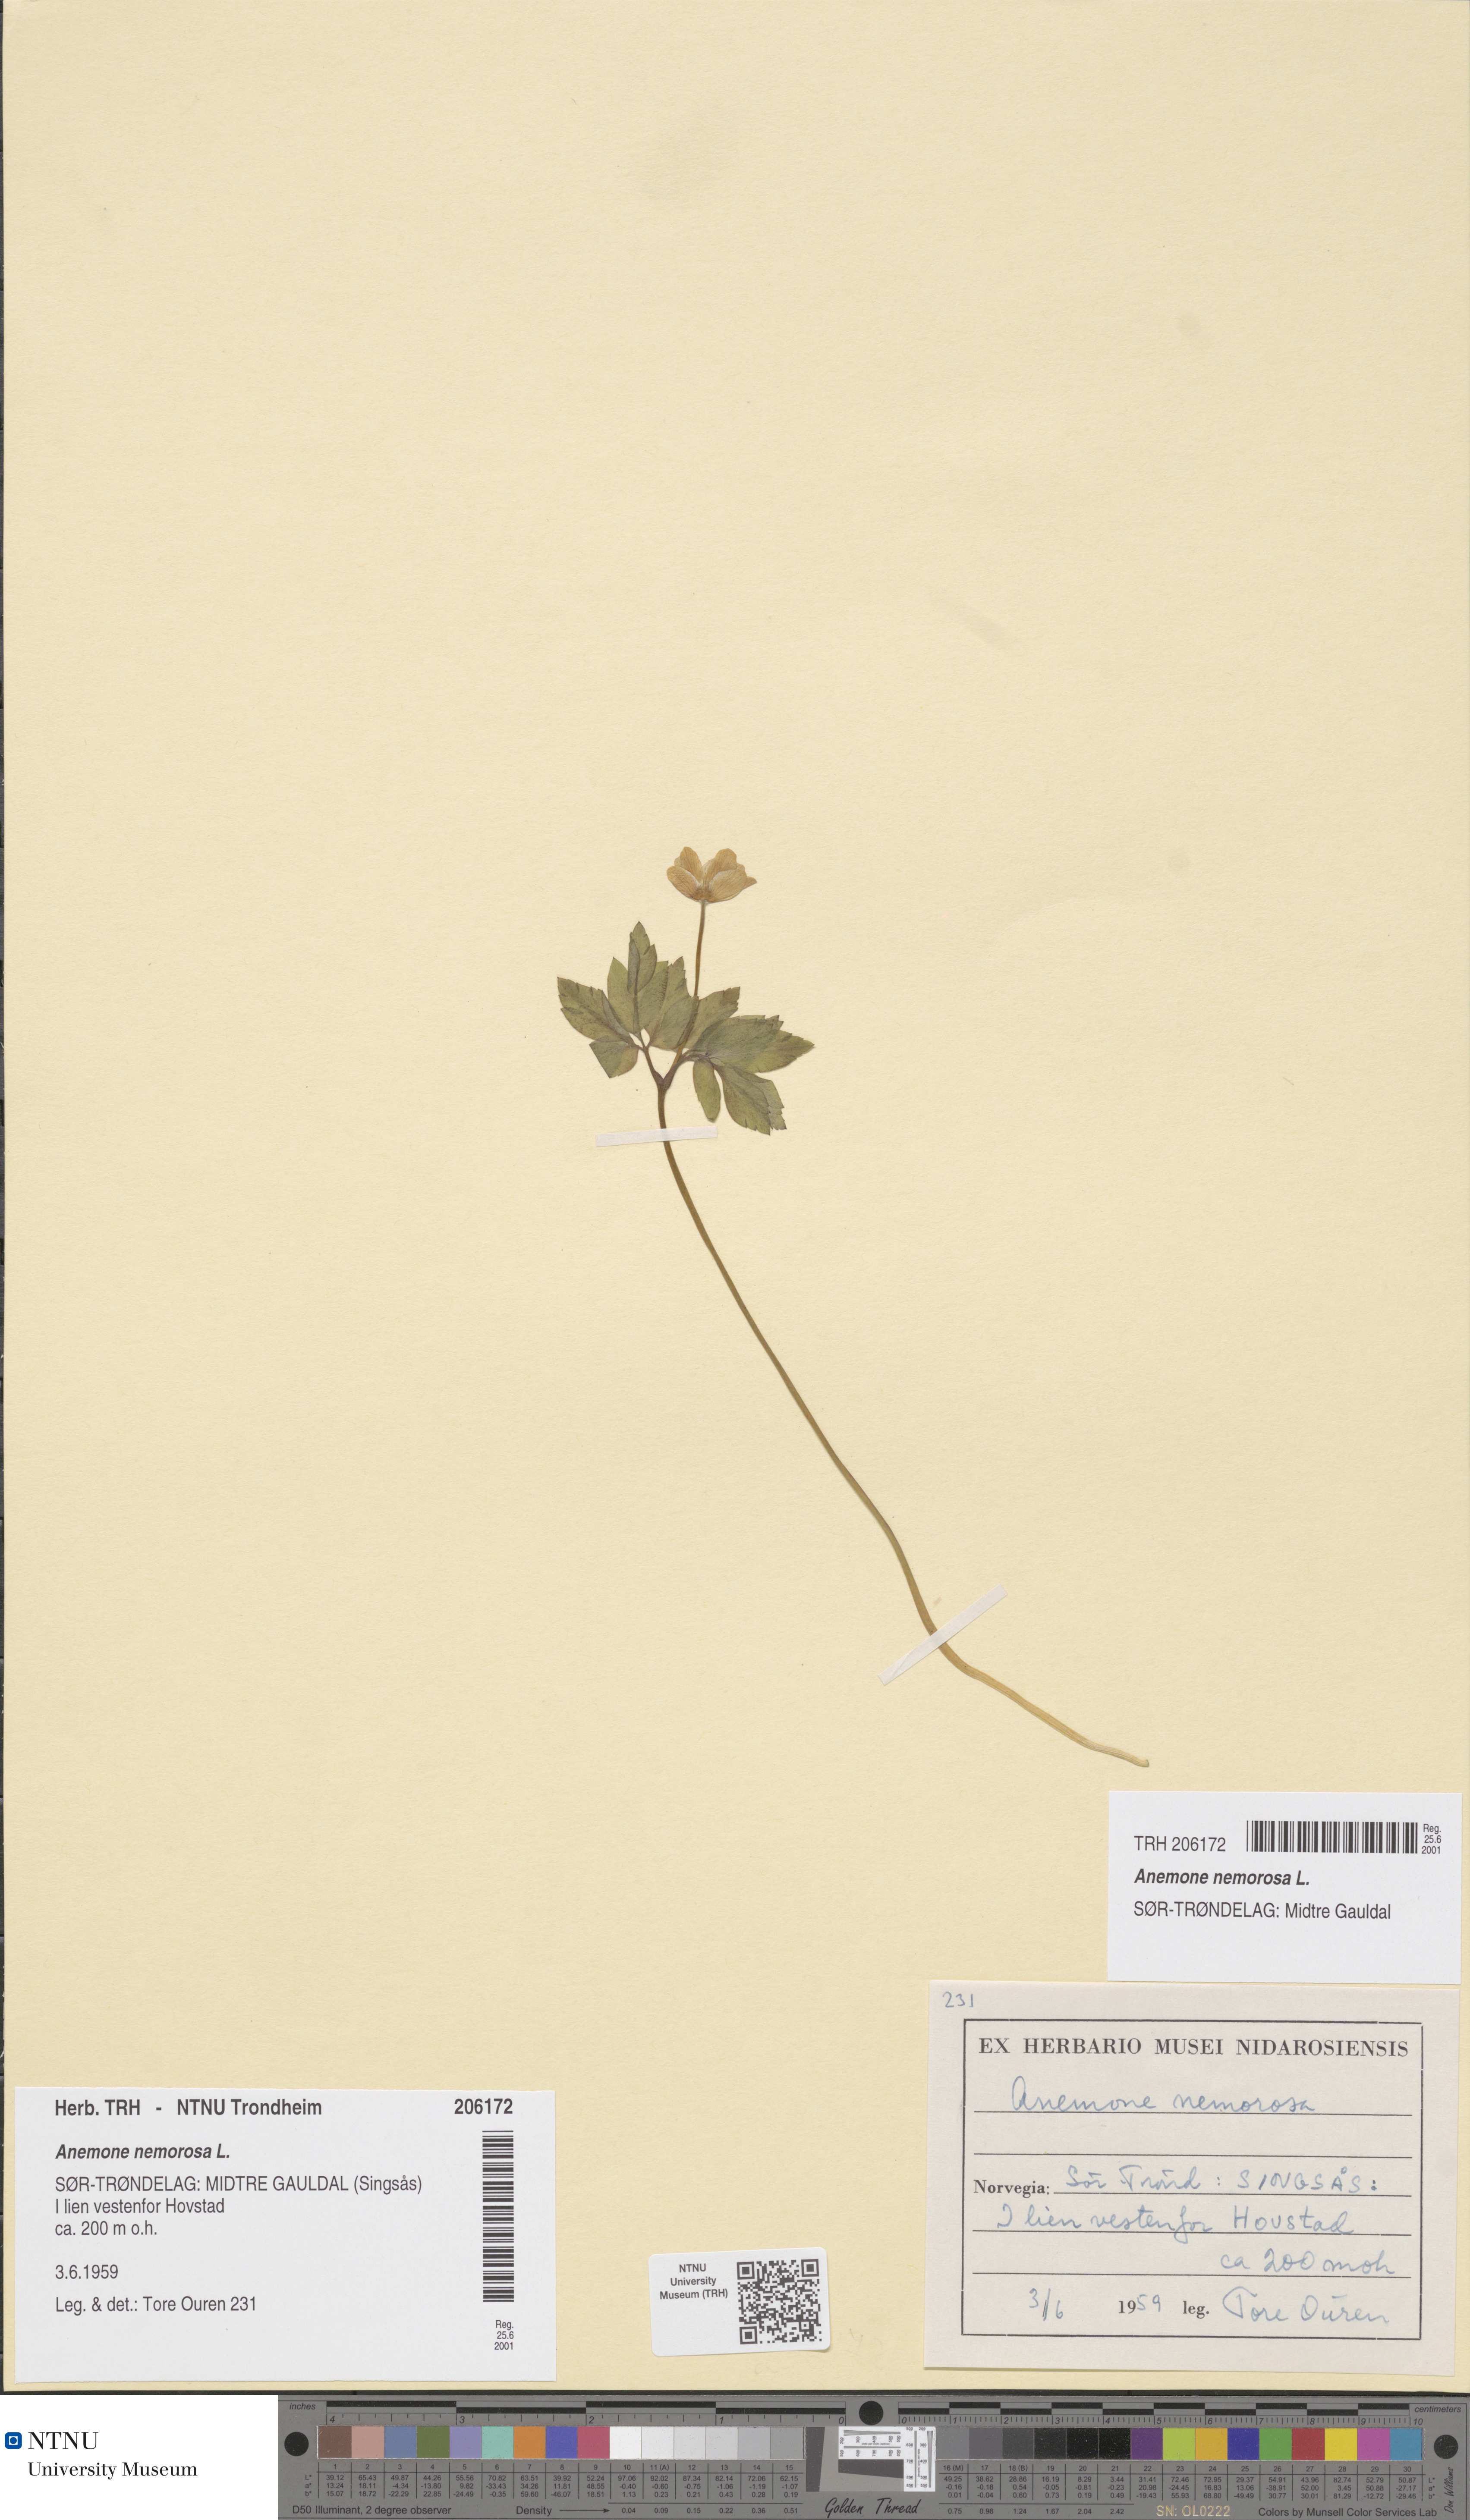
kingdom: Plantae
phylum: Tracheophyta
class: Magnoliopsida
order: Ranunculales
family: Ranunculaceae
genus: Anemone
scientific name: Anemone nemorosa
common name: Wood anemone
